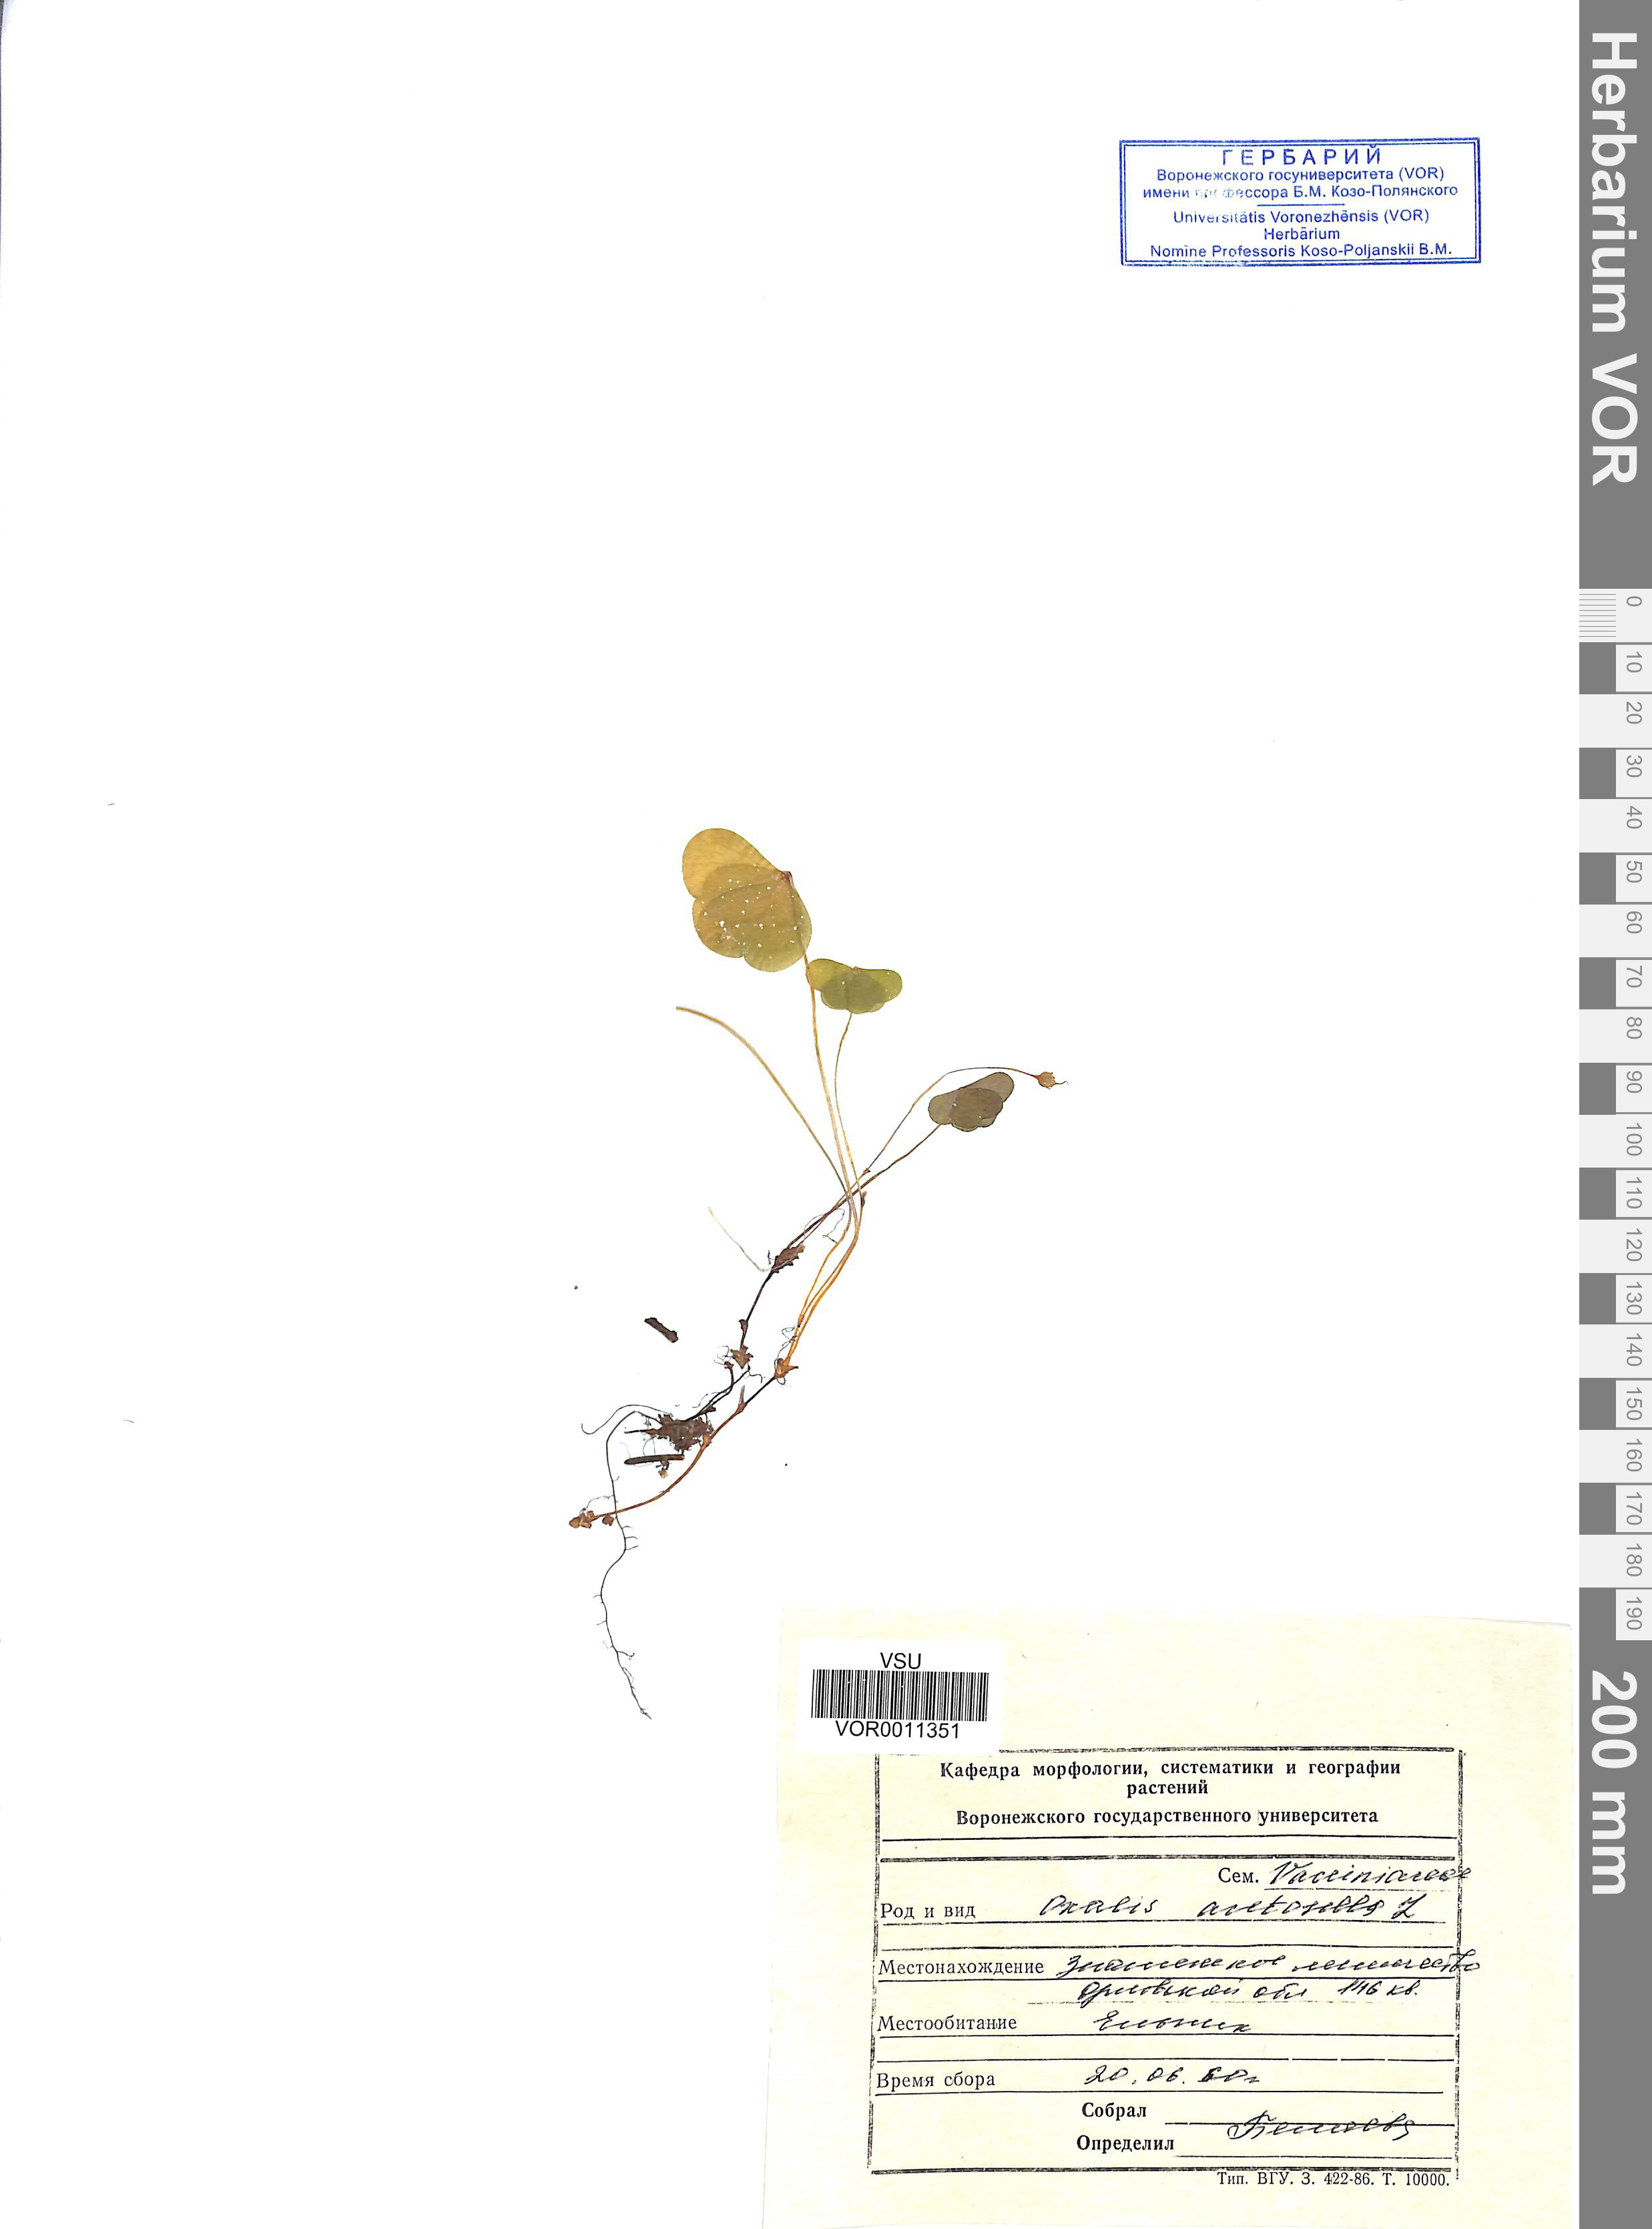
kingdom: Plantae
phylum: Tracheophyta
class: Magnoliopsida
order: Oxalidales
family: Oxalidaceae
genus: Oxalis
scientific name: Oxalis acetosella
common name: Wood-sorrel
